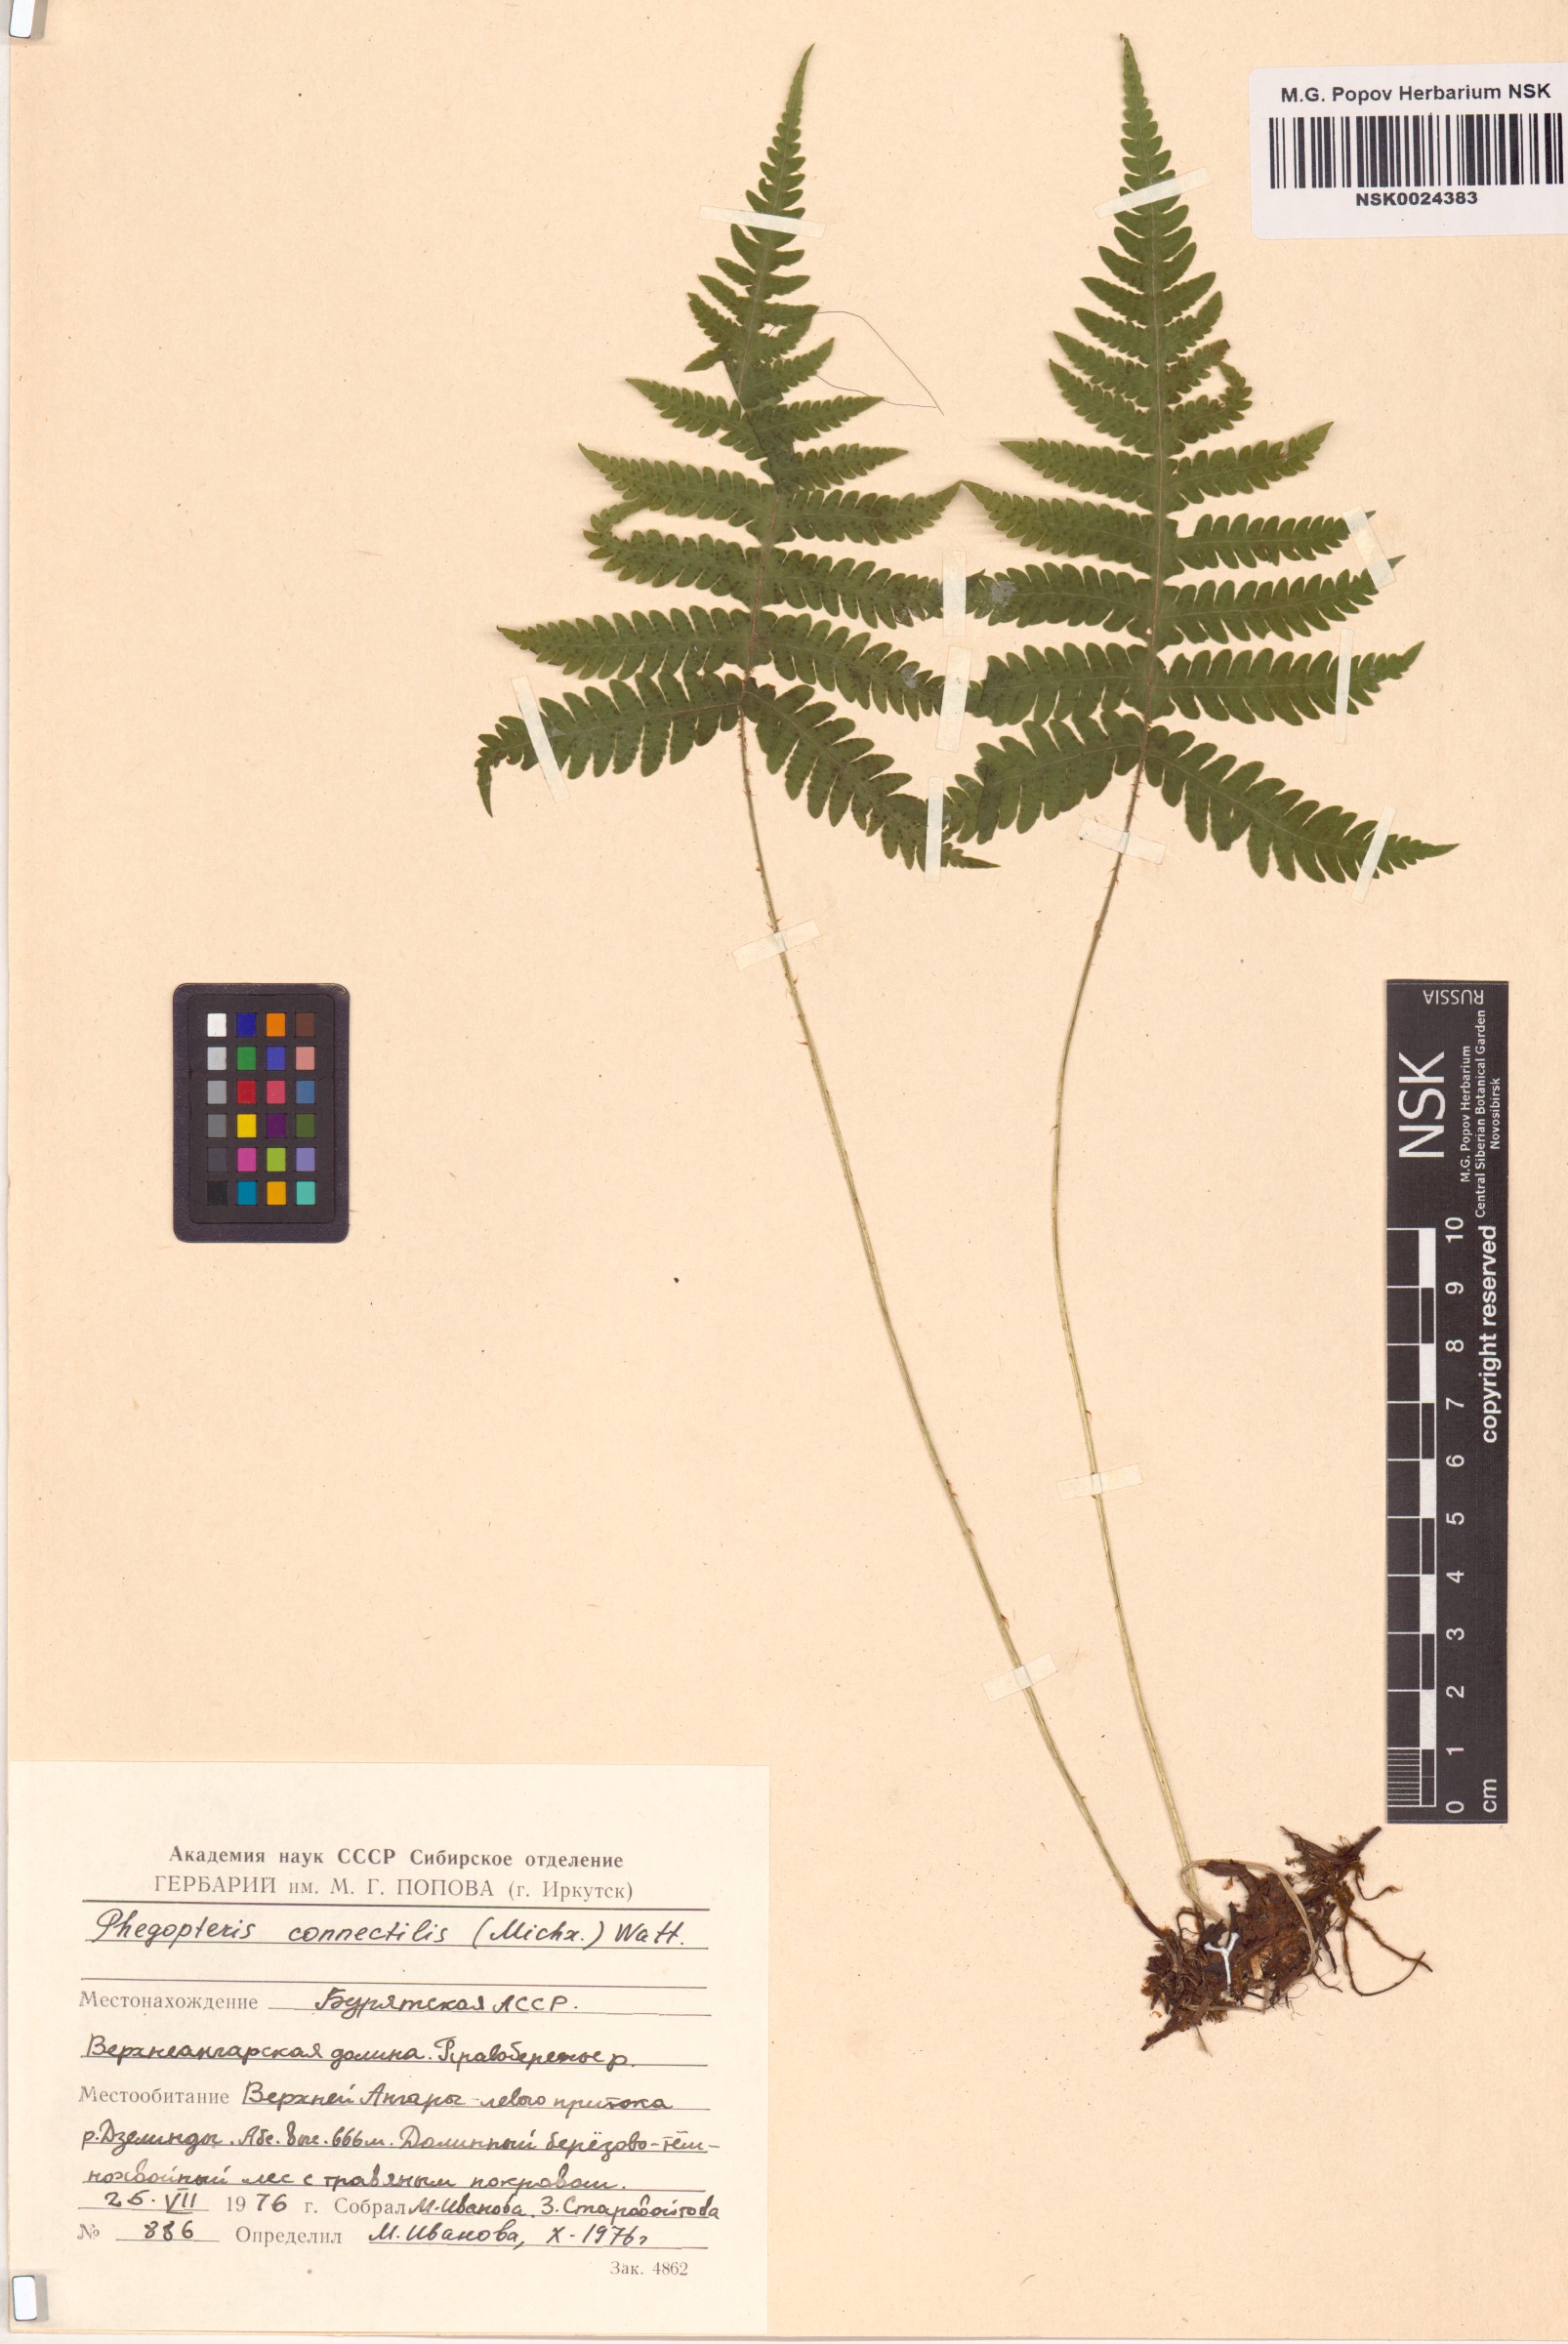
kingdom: Plantae
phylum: Tracheophyta
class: Polypodiopsida
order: Polypodiales
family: Thelypteridaceae
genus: Phegopteris
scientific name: Phegopteris connectilis
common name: Beech fern
